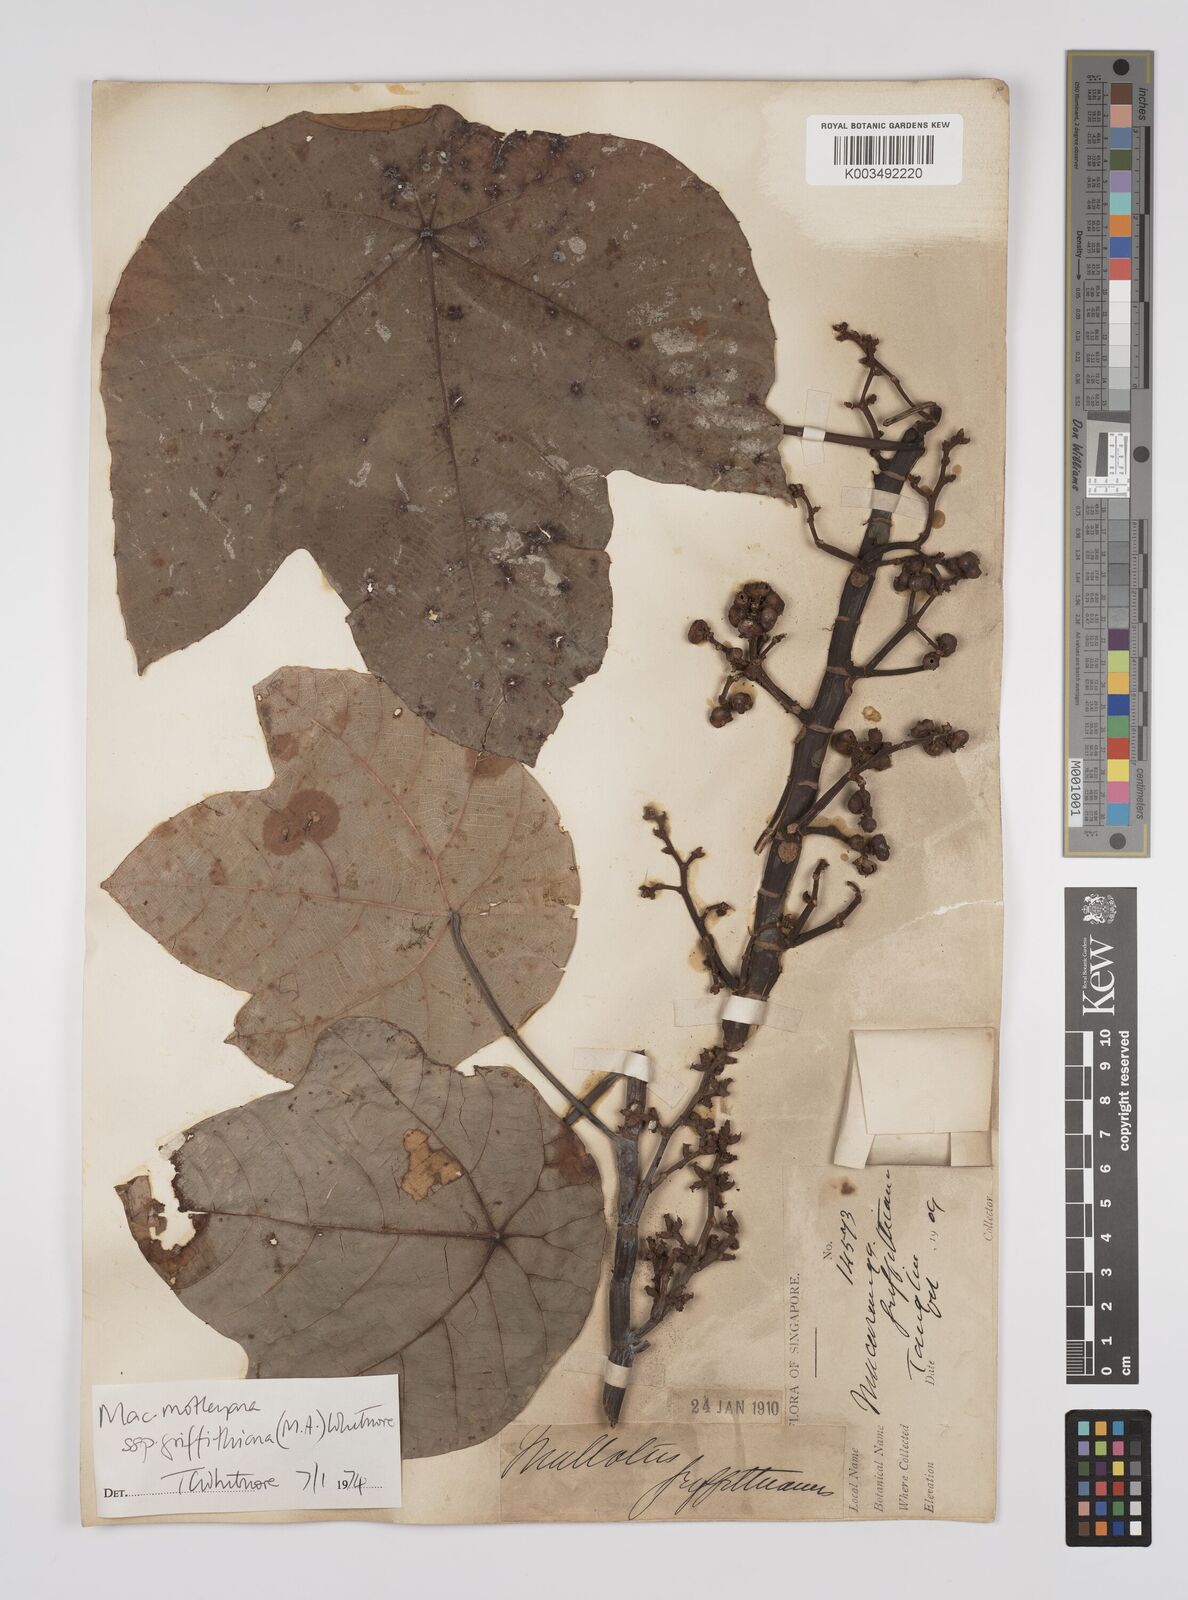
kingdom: Plantae
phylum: Tracheophyta
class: Magnoliopsida
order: Malpighiales
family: Euphorbiaceae
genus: Macaranga
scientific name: Macaranga griffithiana
